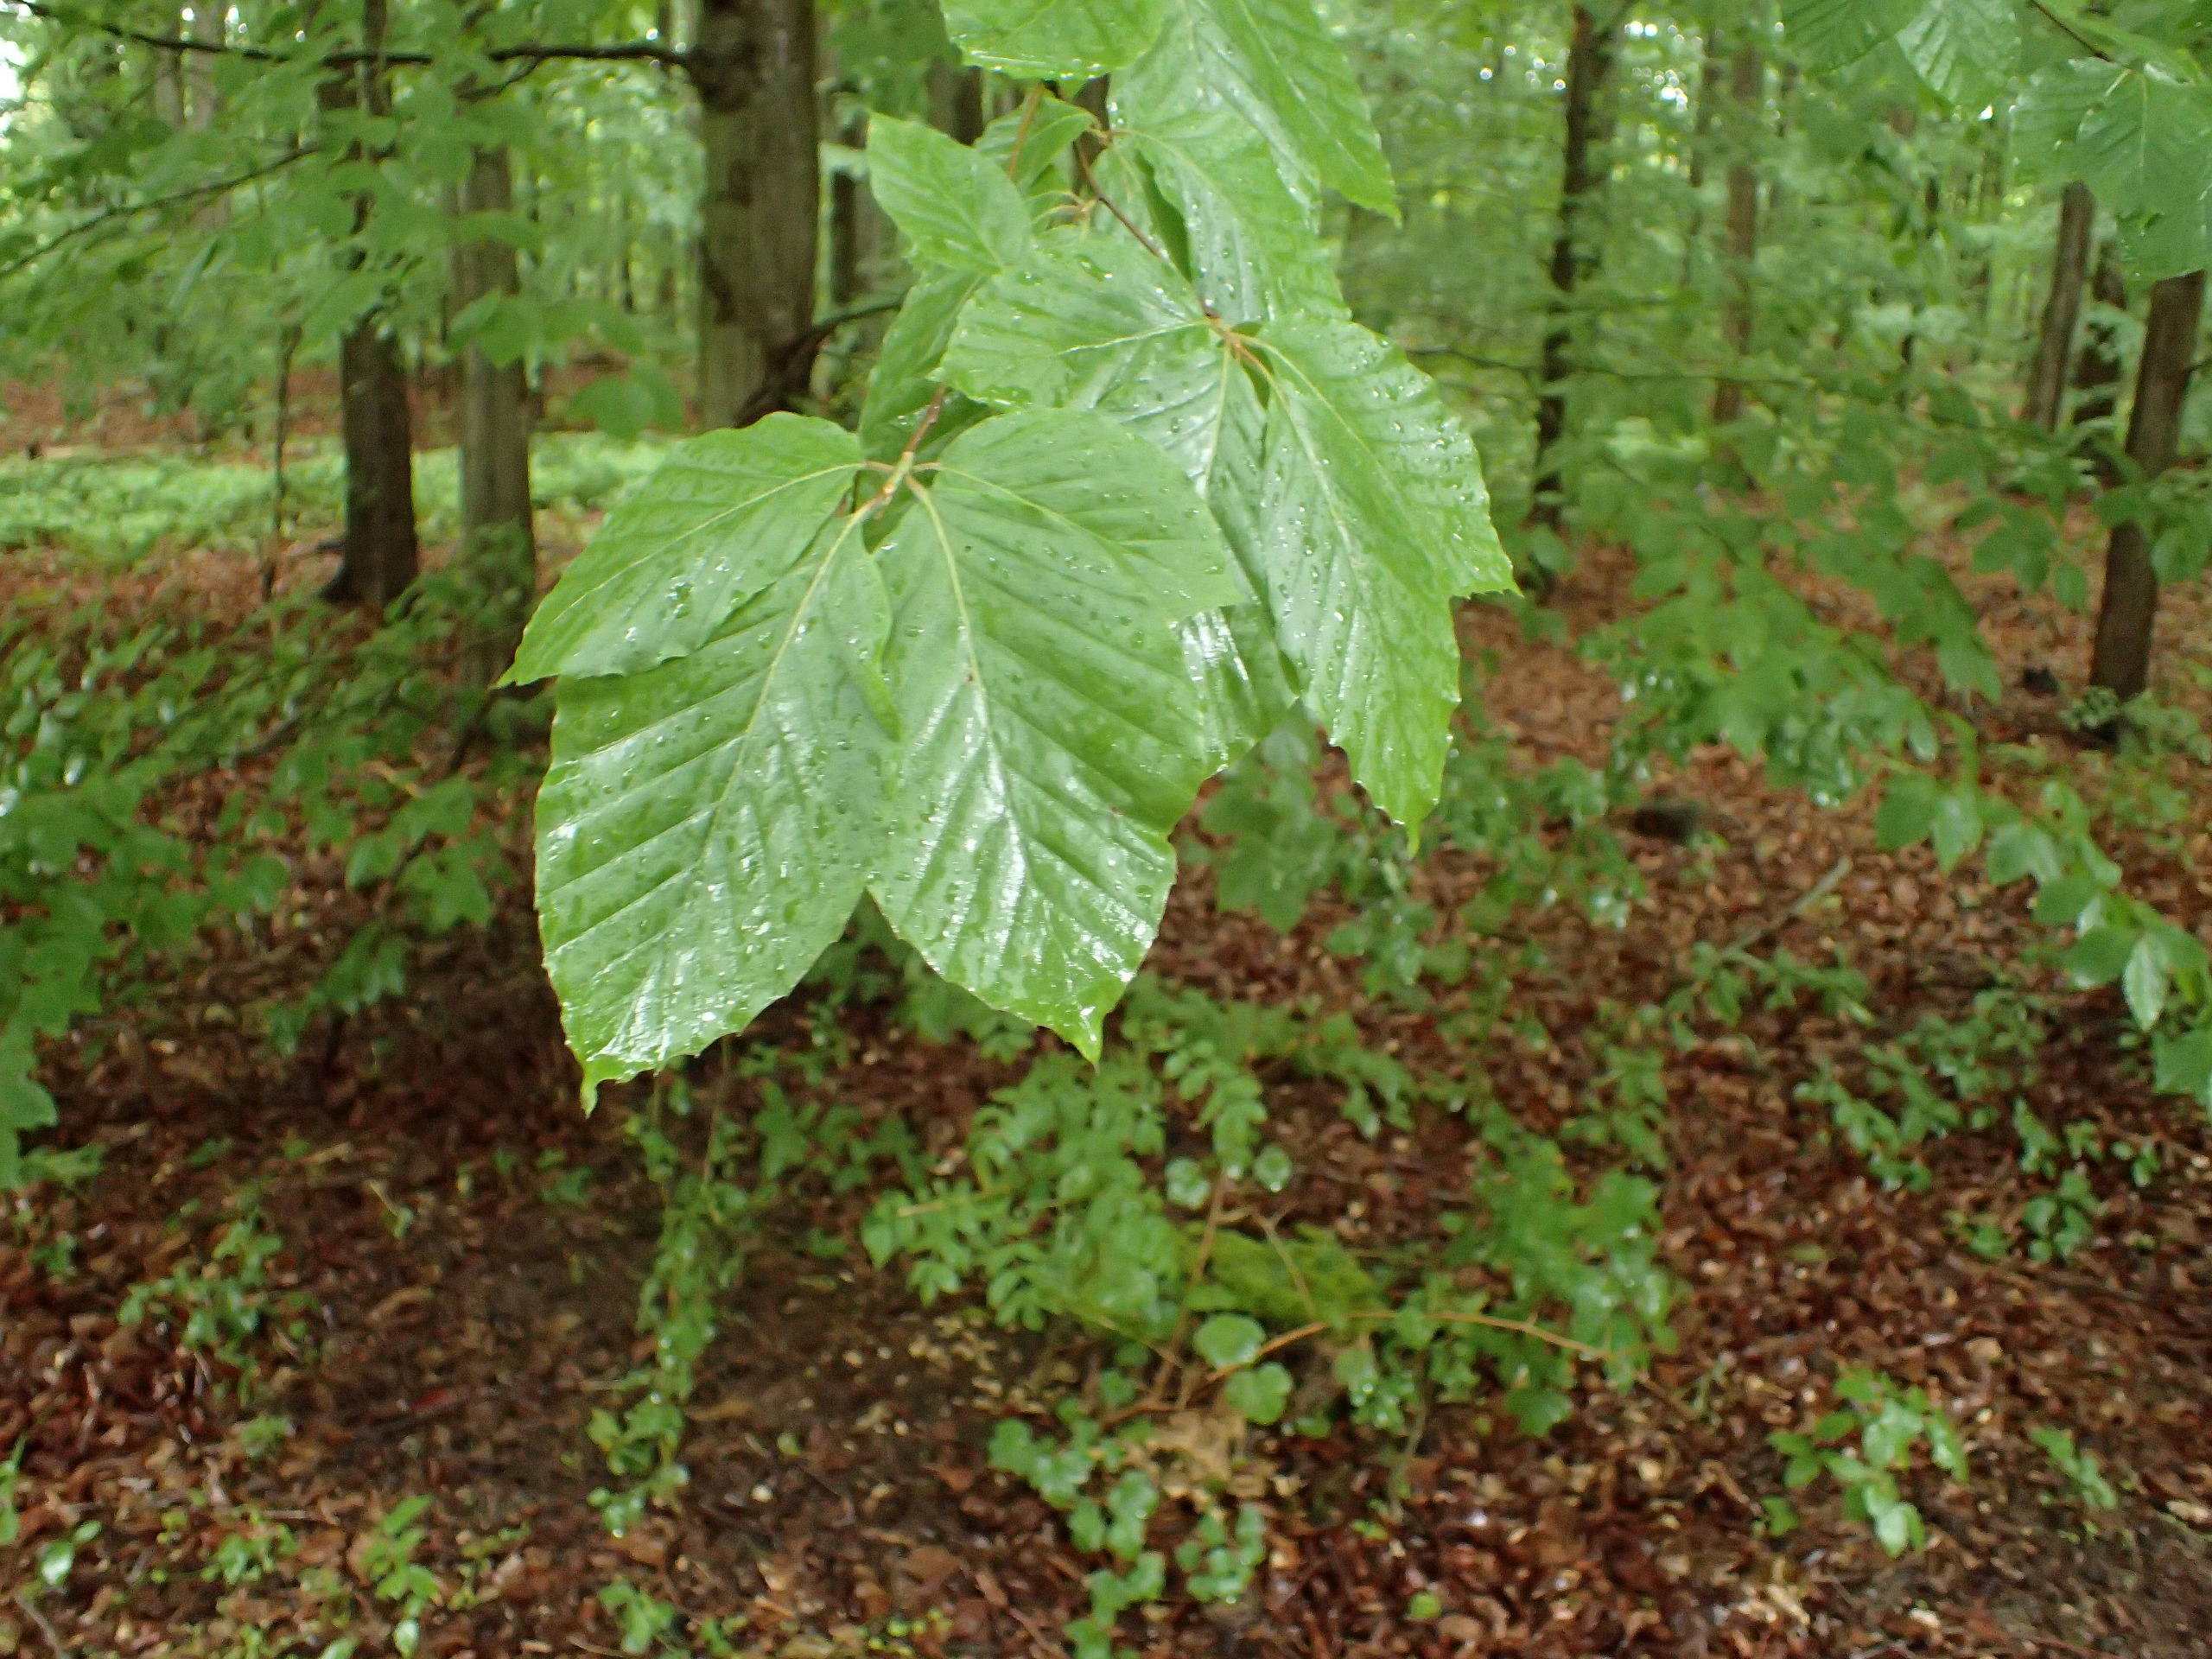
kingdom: Plantae
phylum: Tracheophyta
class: Magnoliopsida
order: Fagales
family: Fagaceae
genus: Fagus
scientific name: Fagus sylvatica
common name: Bøg
